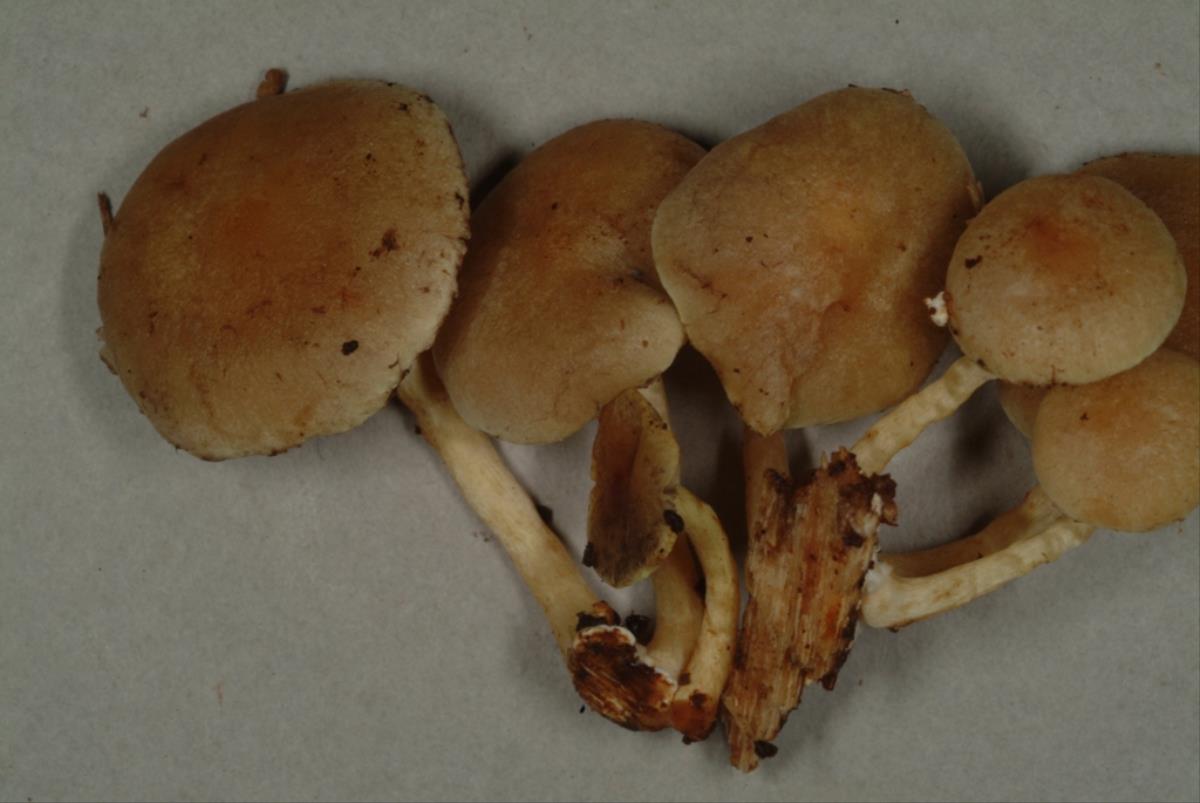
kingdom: Fungi
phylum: Basidiomycota
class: Agaricomycetes
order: Agaricales
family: Strophariaceae
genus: Hypholoma
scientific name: Hypholoma
